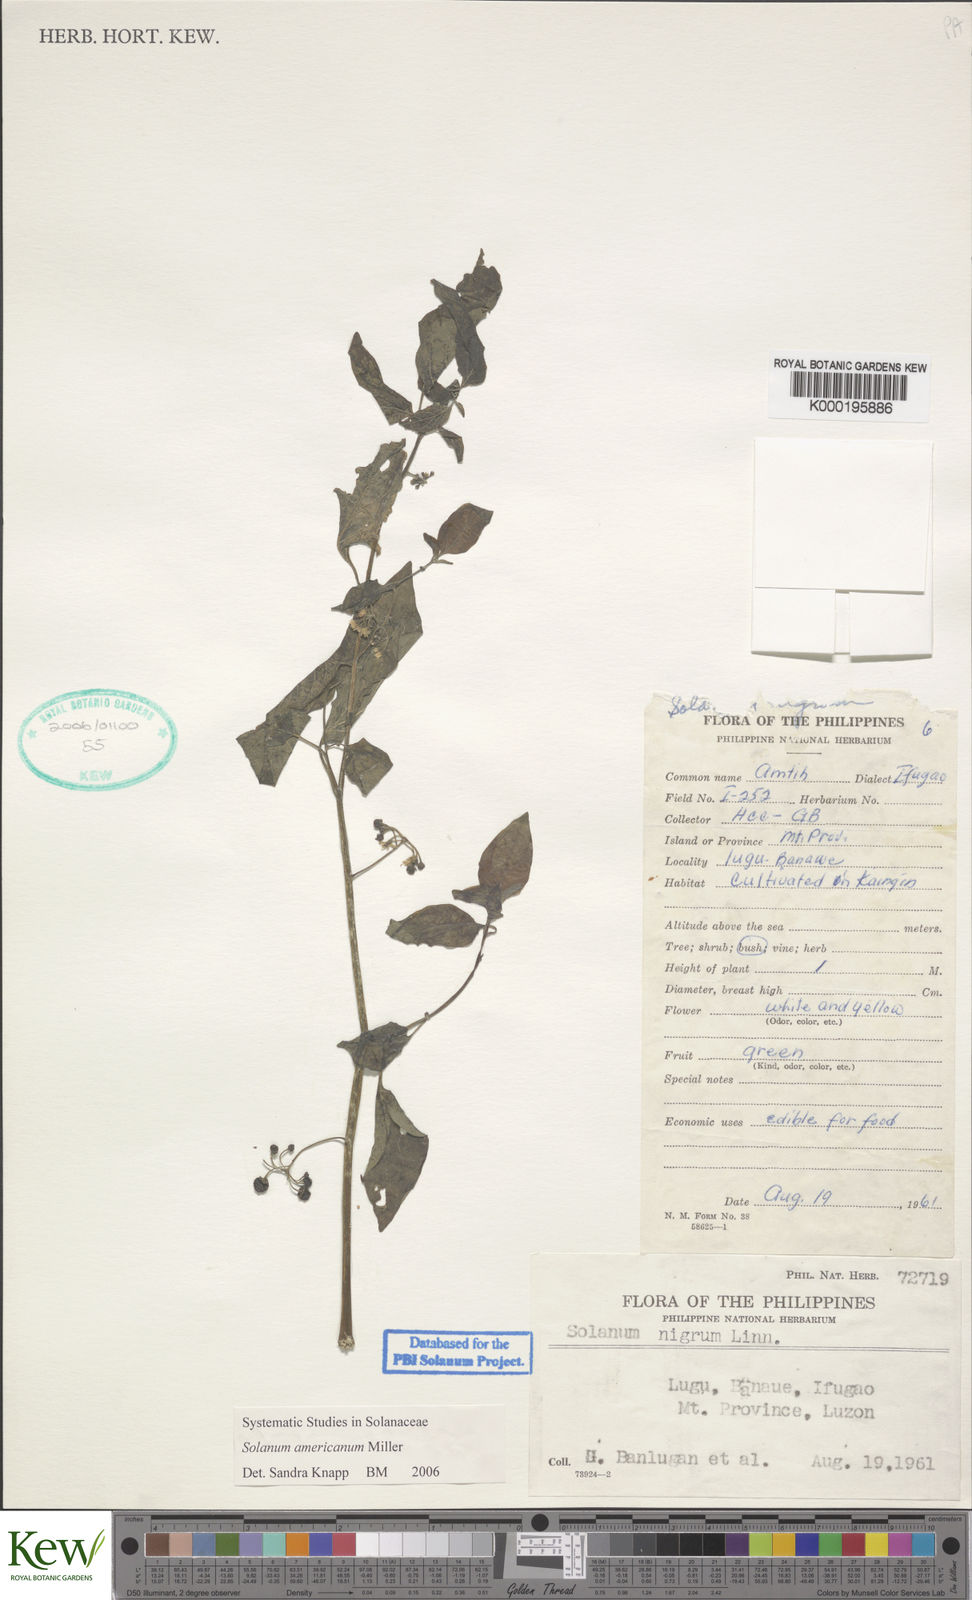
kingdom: Plantae
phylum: Tracheophyta
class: Magnoliopsida
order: Solanales
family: Solanaceae
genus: Solanum
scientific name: Solanum americanum
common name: American black nightshade
